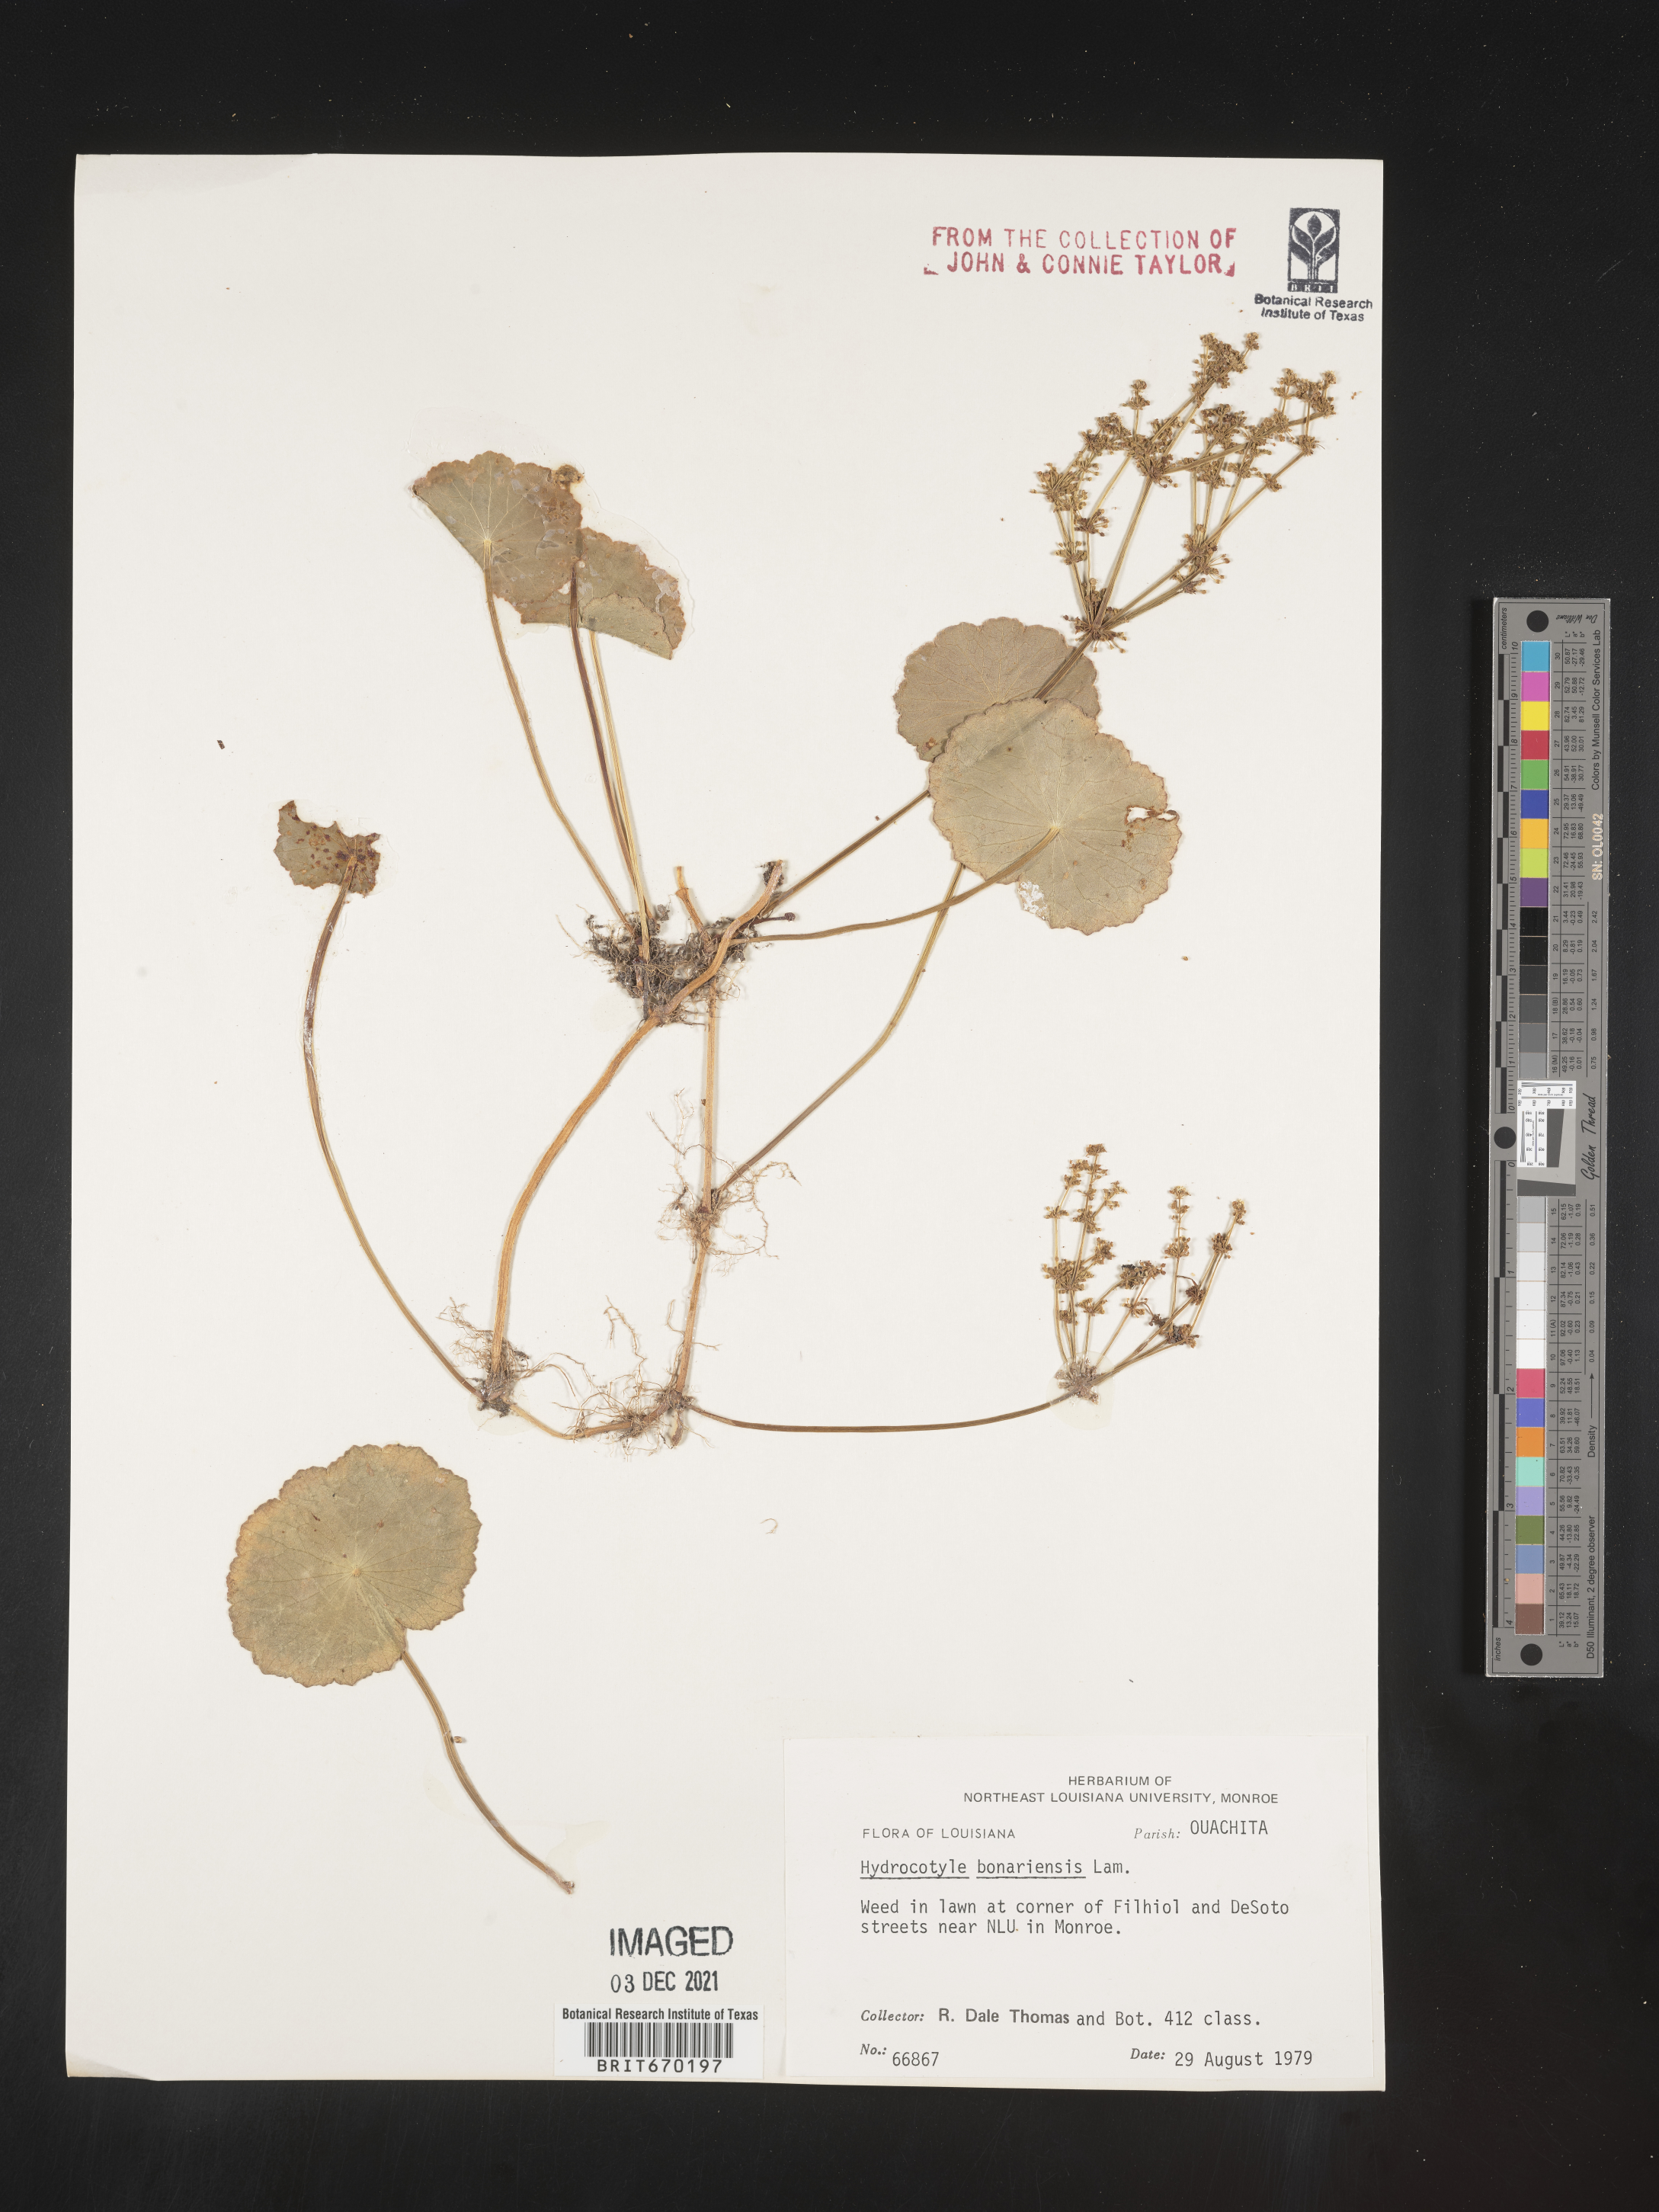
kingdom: Plantae
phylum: Tracheophyta
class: Magnoliopsida
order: Apiales
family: Araliaceae
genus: Hydrocotyle
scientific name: Hydrocotyle bonariensis
